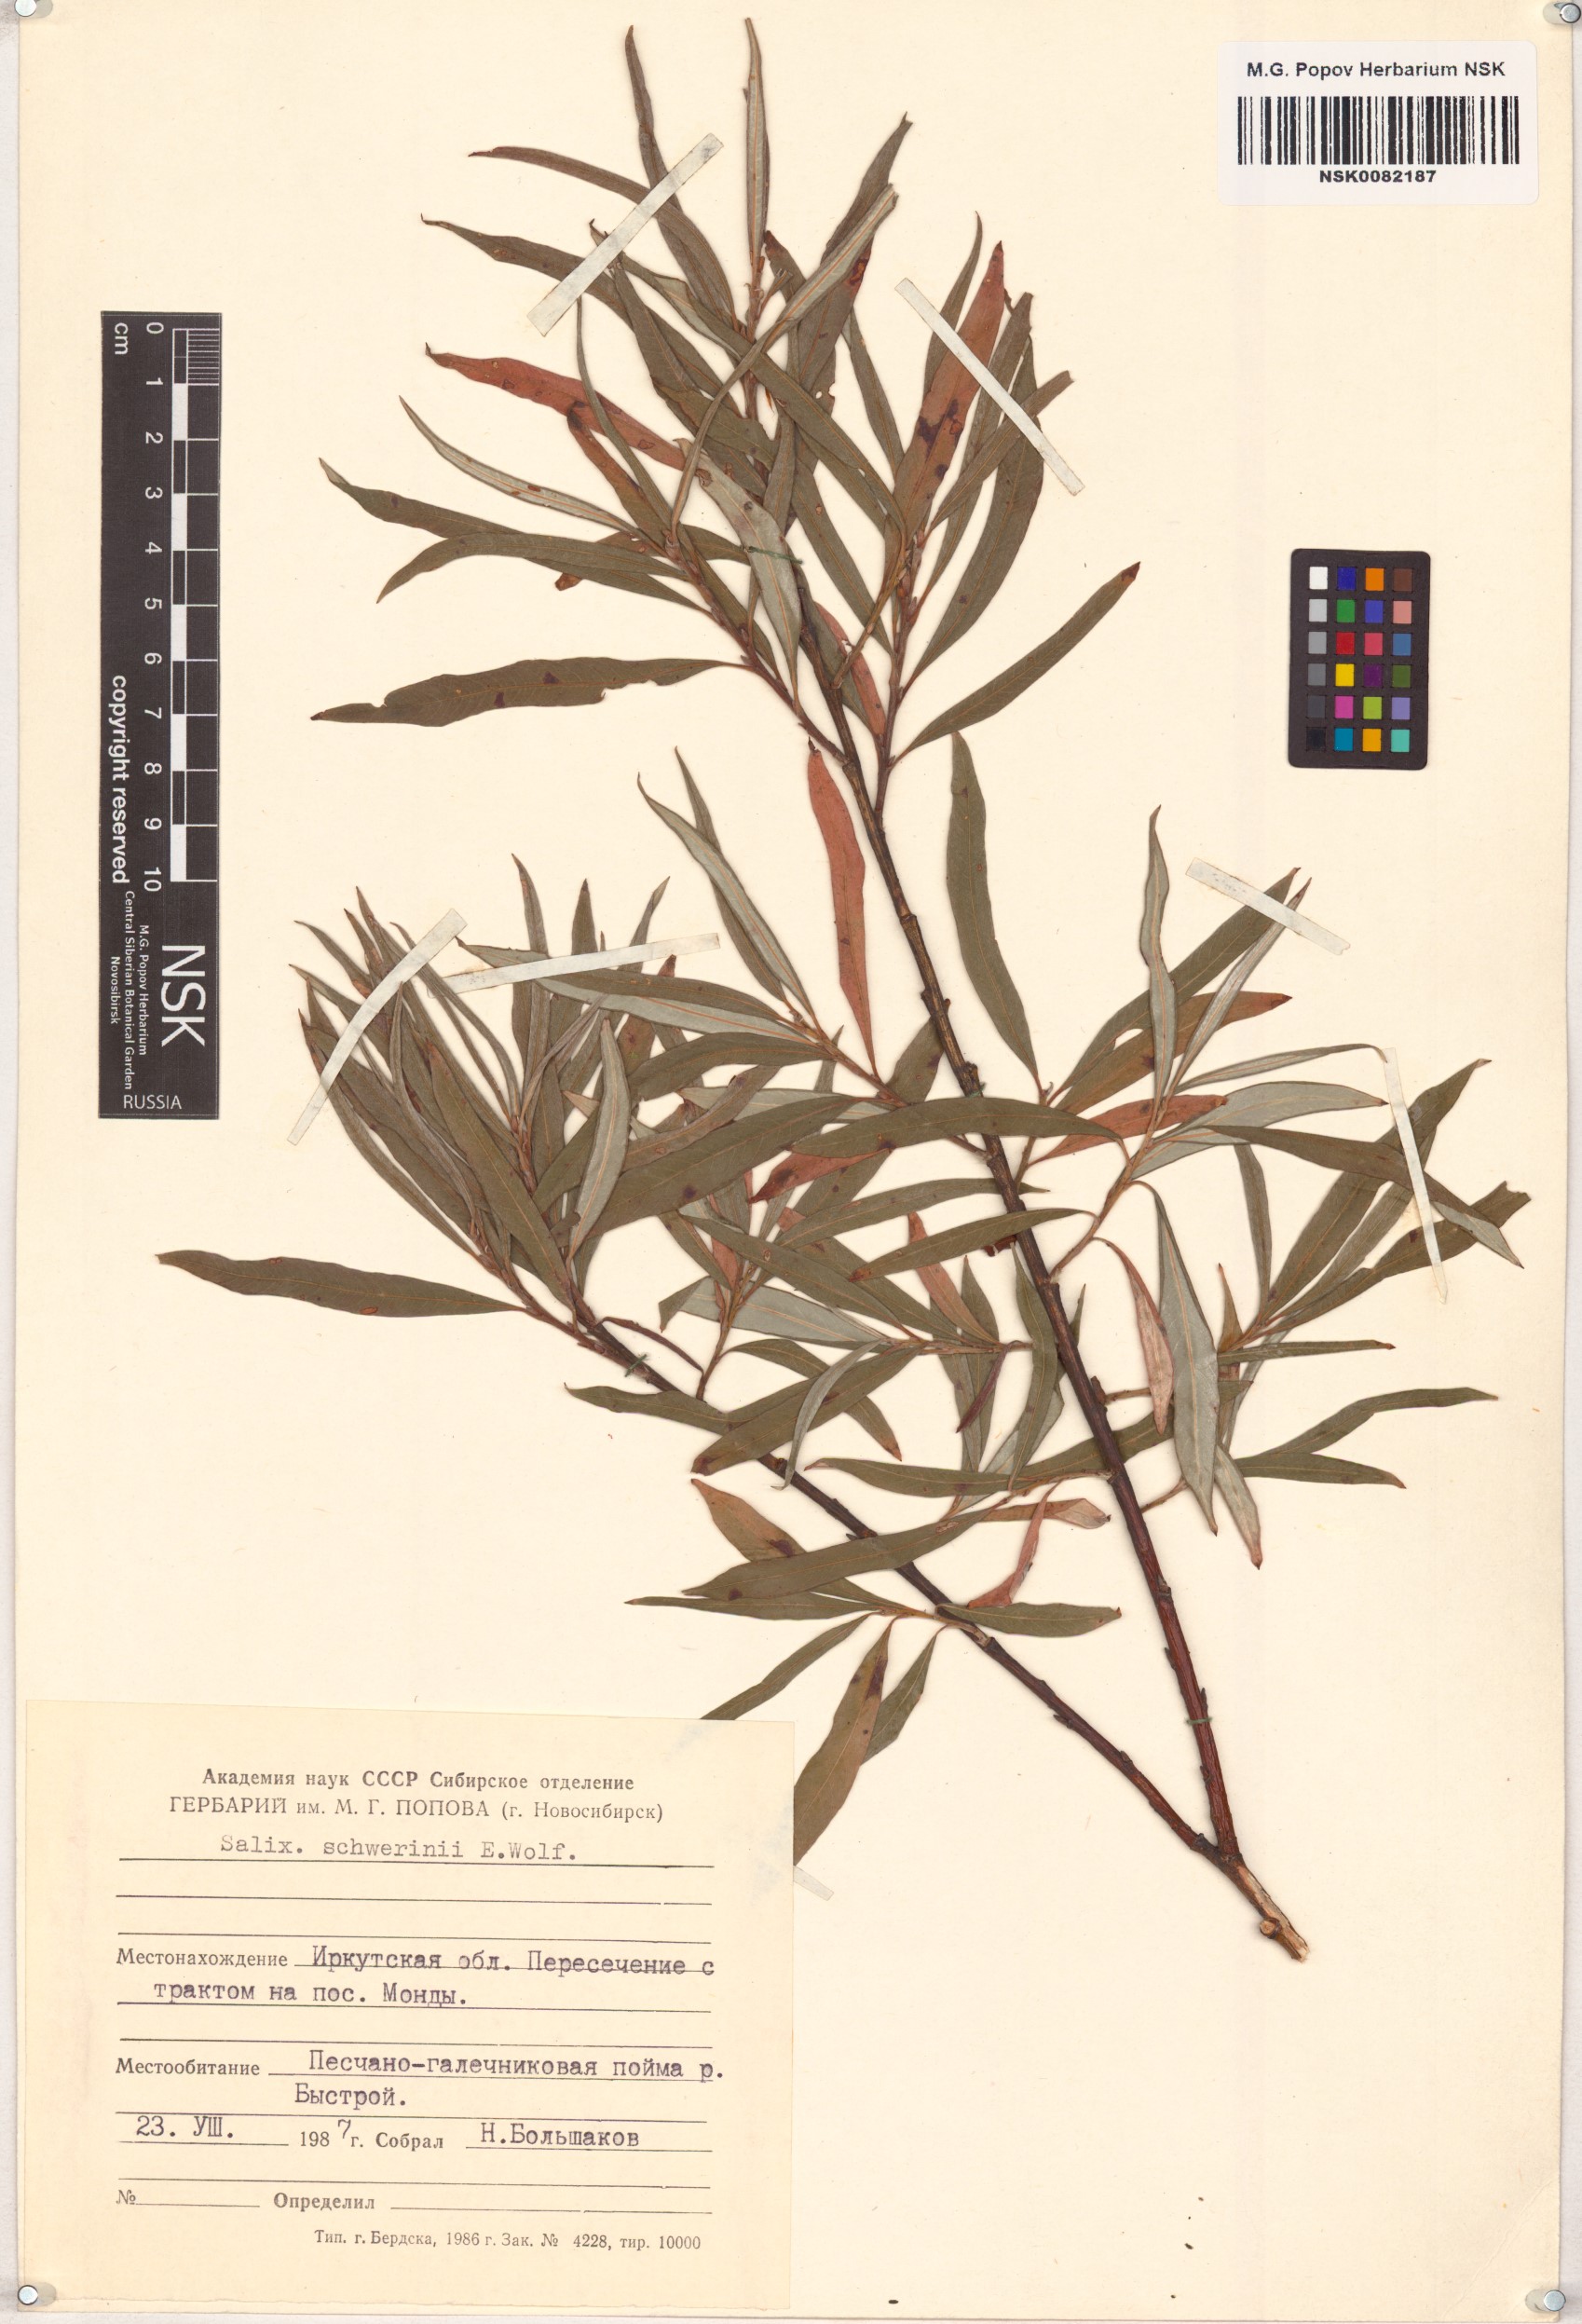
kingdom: Plantae
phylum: Tracheophyta
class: Magnoliopsida
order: Malpighiales
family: Salicaceae
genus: Salix
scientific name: Salix schwerinii
